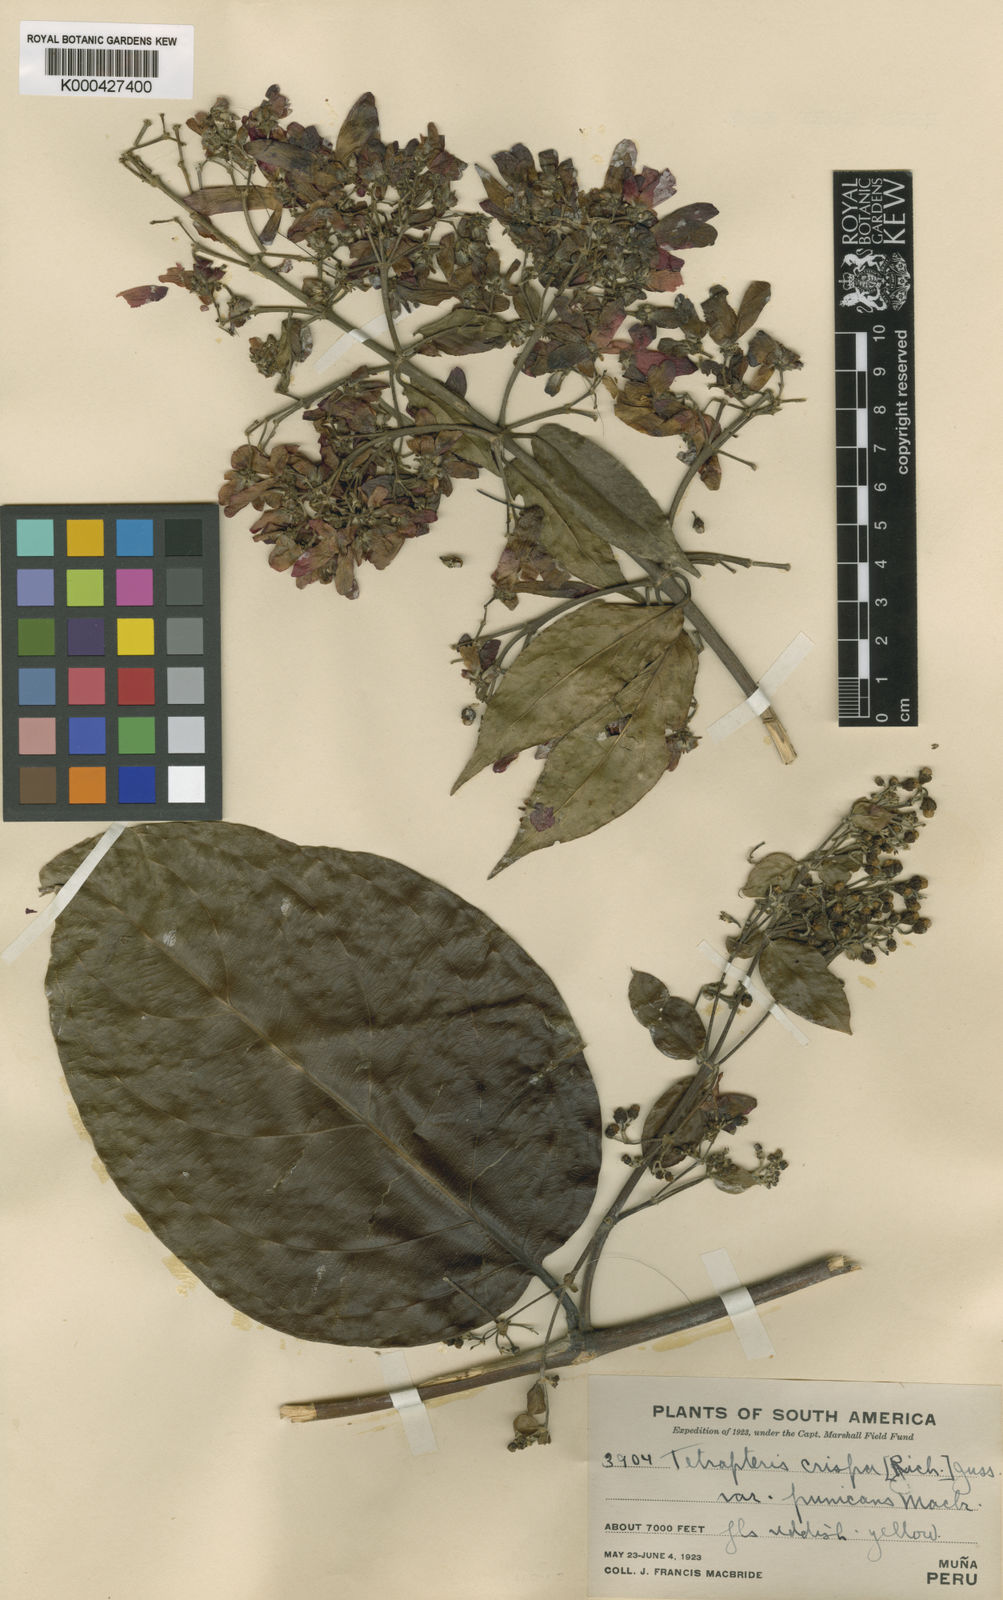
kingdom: Plantae
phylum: Tracheophyta
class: Magnoliopsida
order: Malpighiales
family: Malpighiaceae
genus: Tetrapterys
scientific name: Tetrapterys crispa
